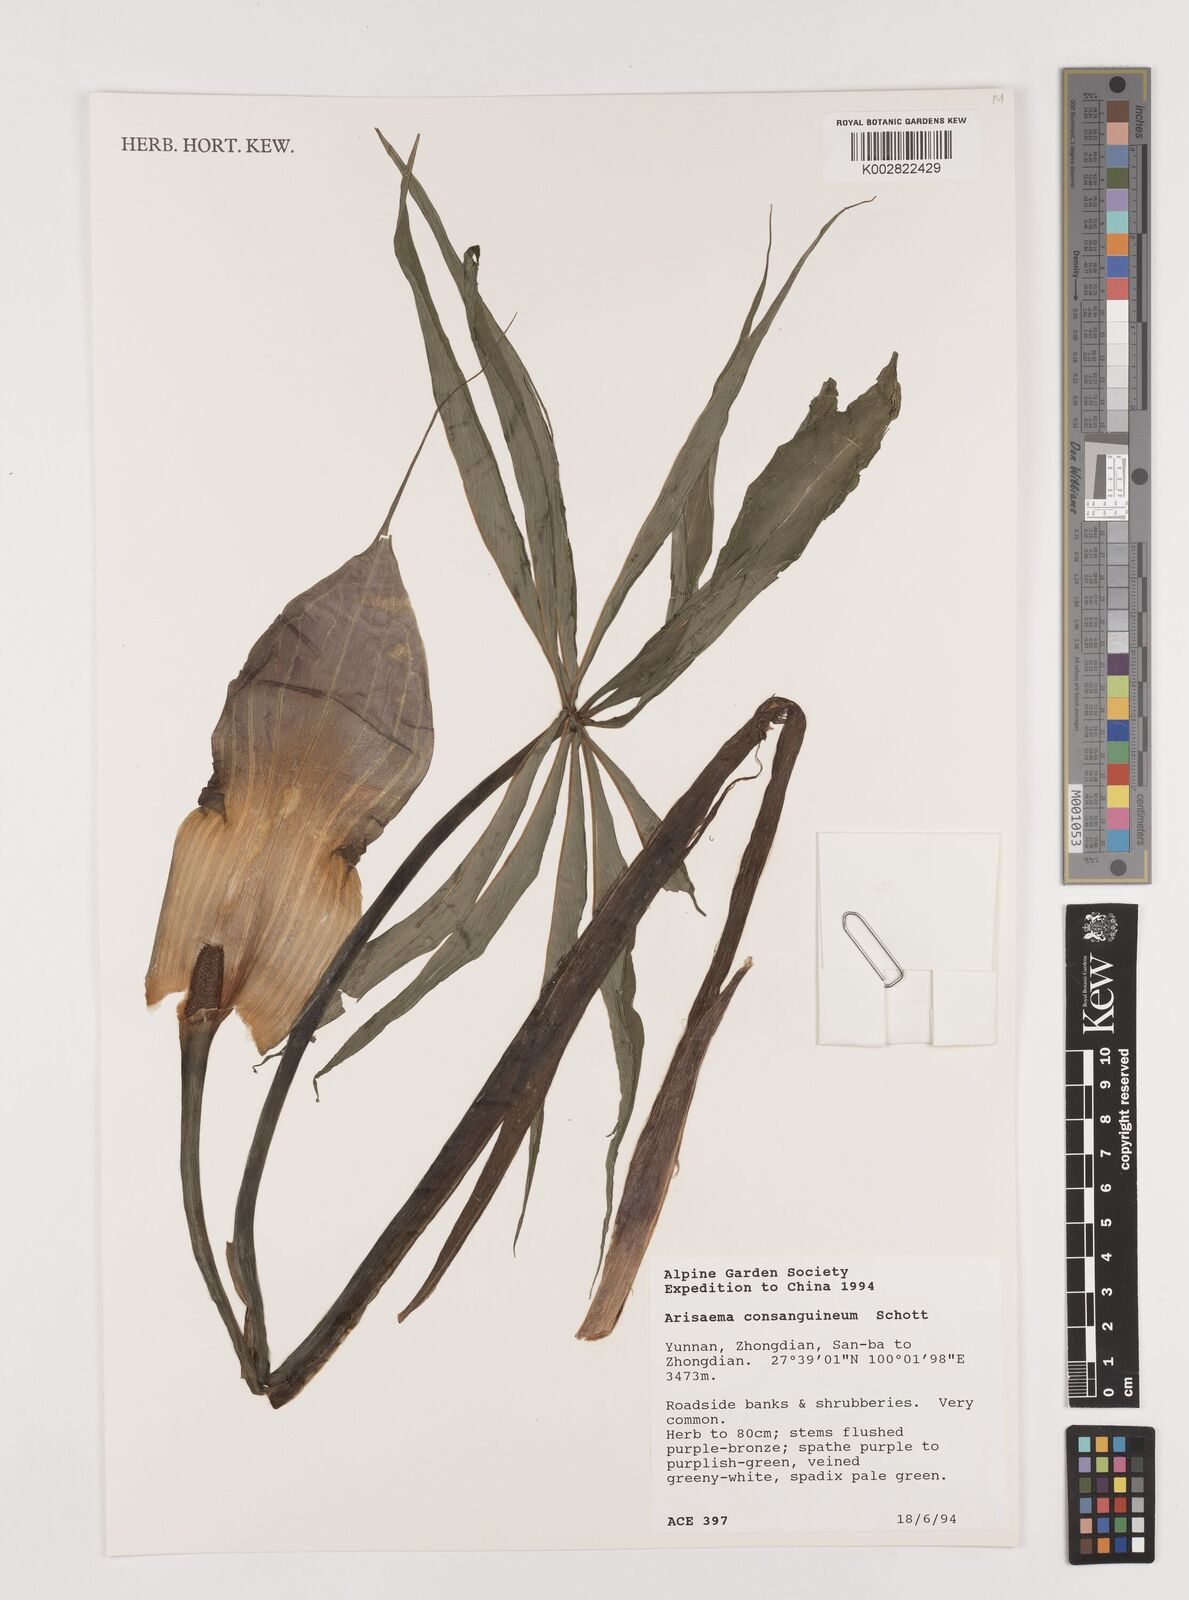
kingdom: Plantae
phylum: Tracheophyta
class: Liliopsida
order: Alismatales
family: Araceae
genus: Arisaema
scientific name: Arisaema erubescens
